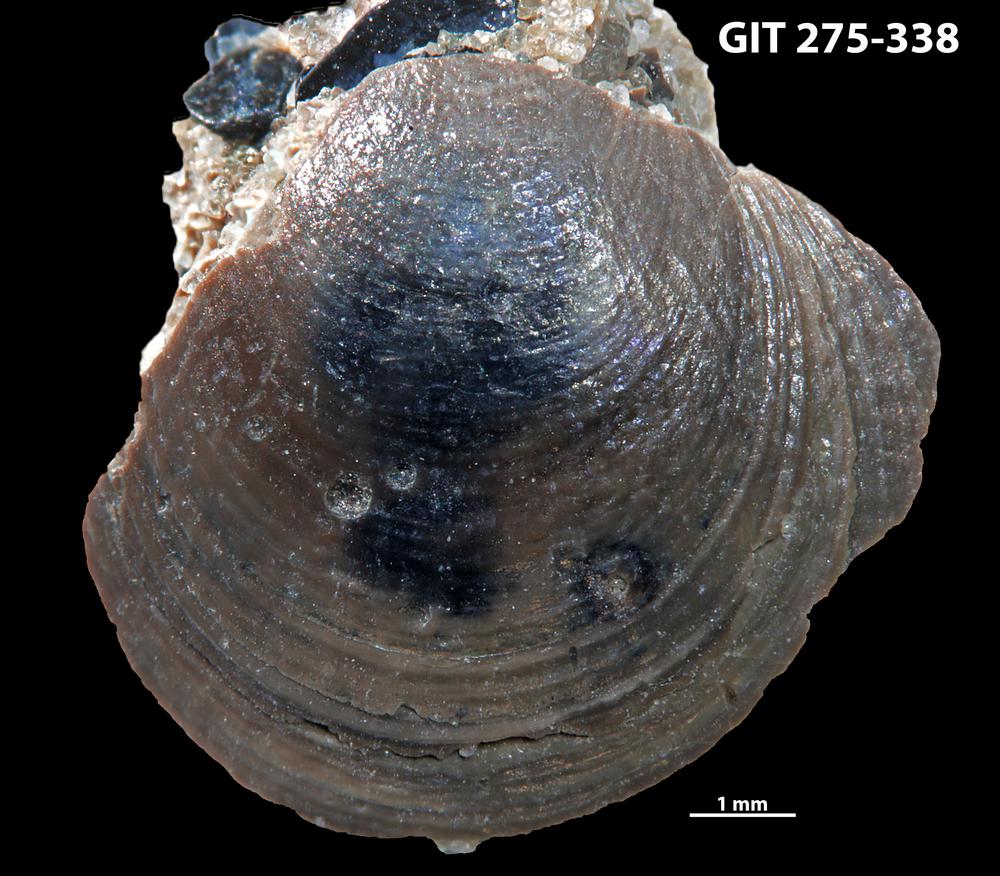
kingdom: Animalia
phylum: Brachiopoda
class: Lingulata
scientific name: Lingulata
